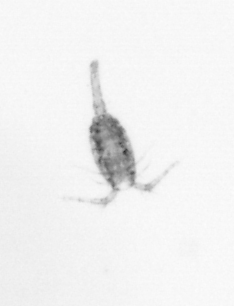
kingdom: Animalia
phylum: Arthropoda
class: Copepoda
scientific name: Copepoda
